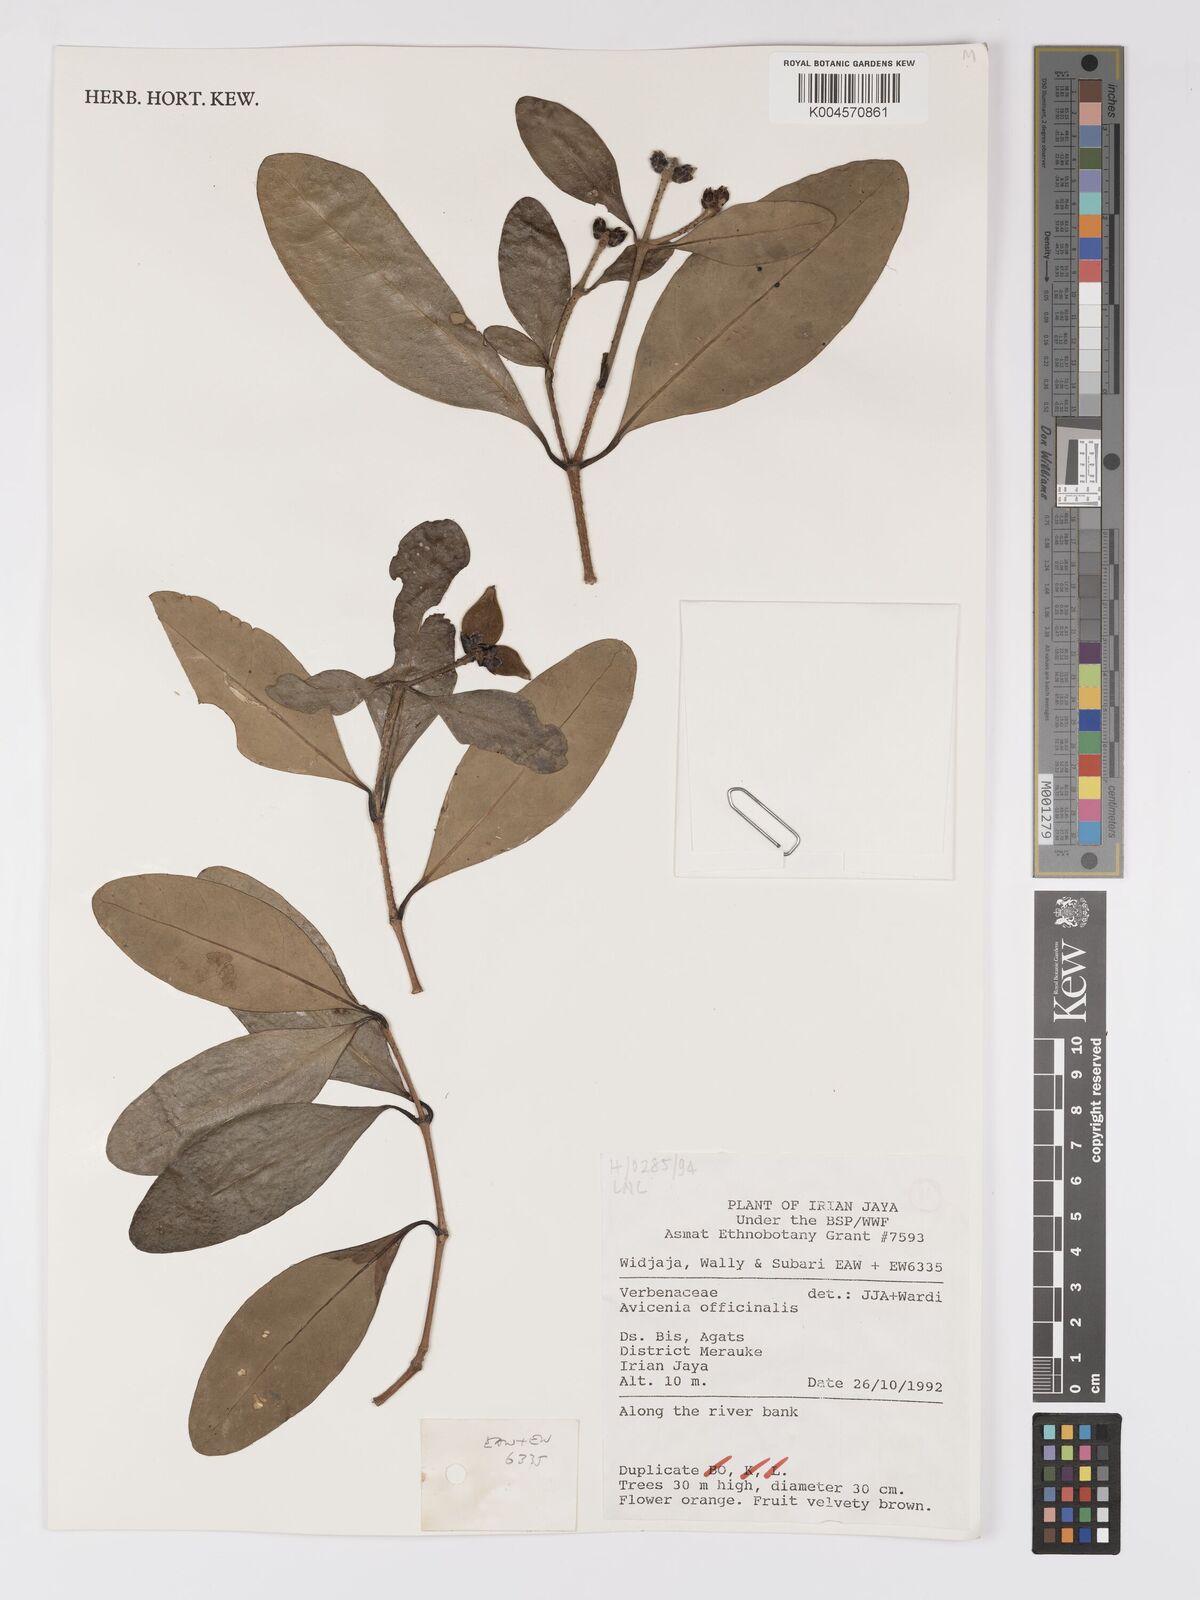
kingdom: Plantae
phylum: Tracheophyta
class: Magnoliopsida
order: Lamiales
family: Acanthaceae
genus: Avicennia
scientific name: Avicennia officinalis
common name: Baen
